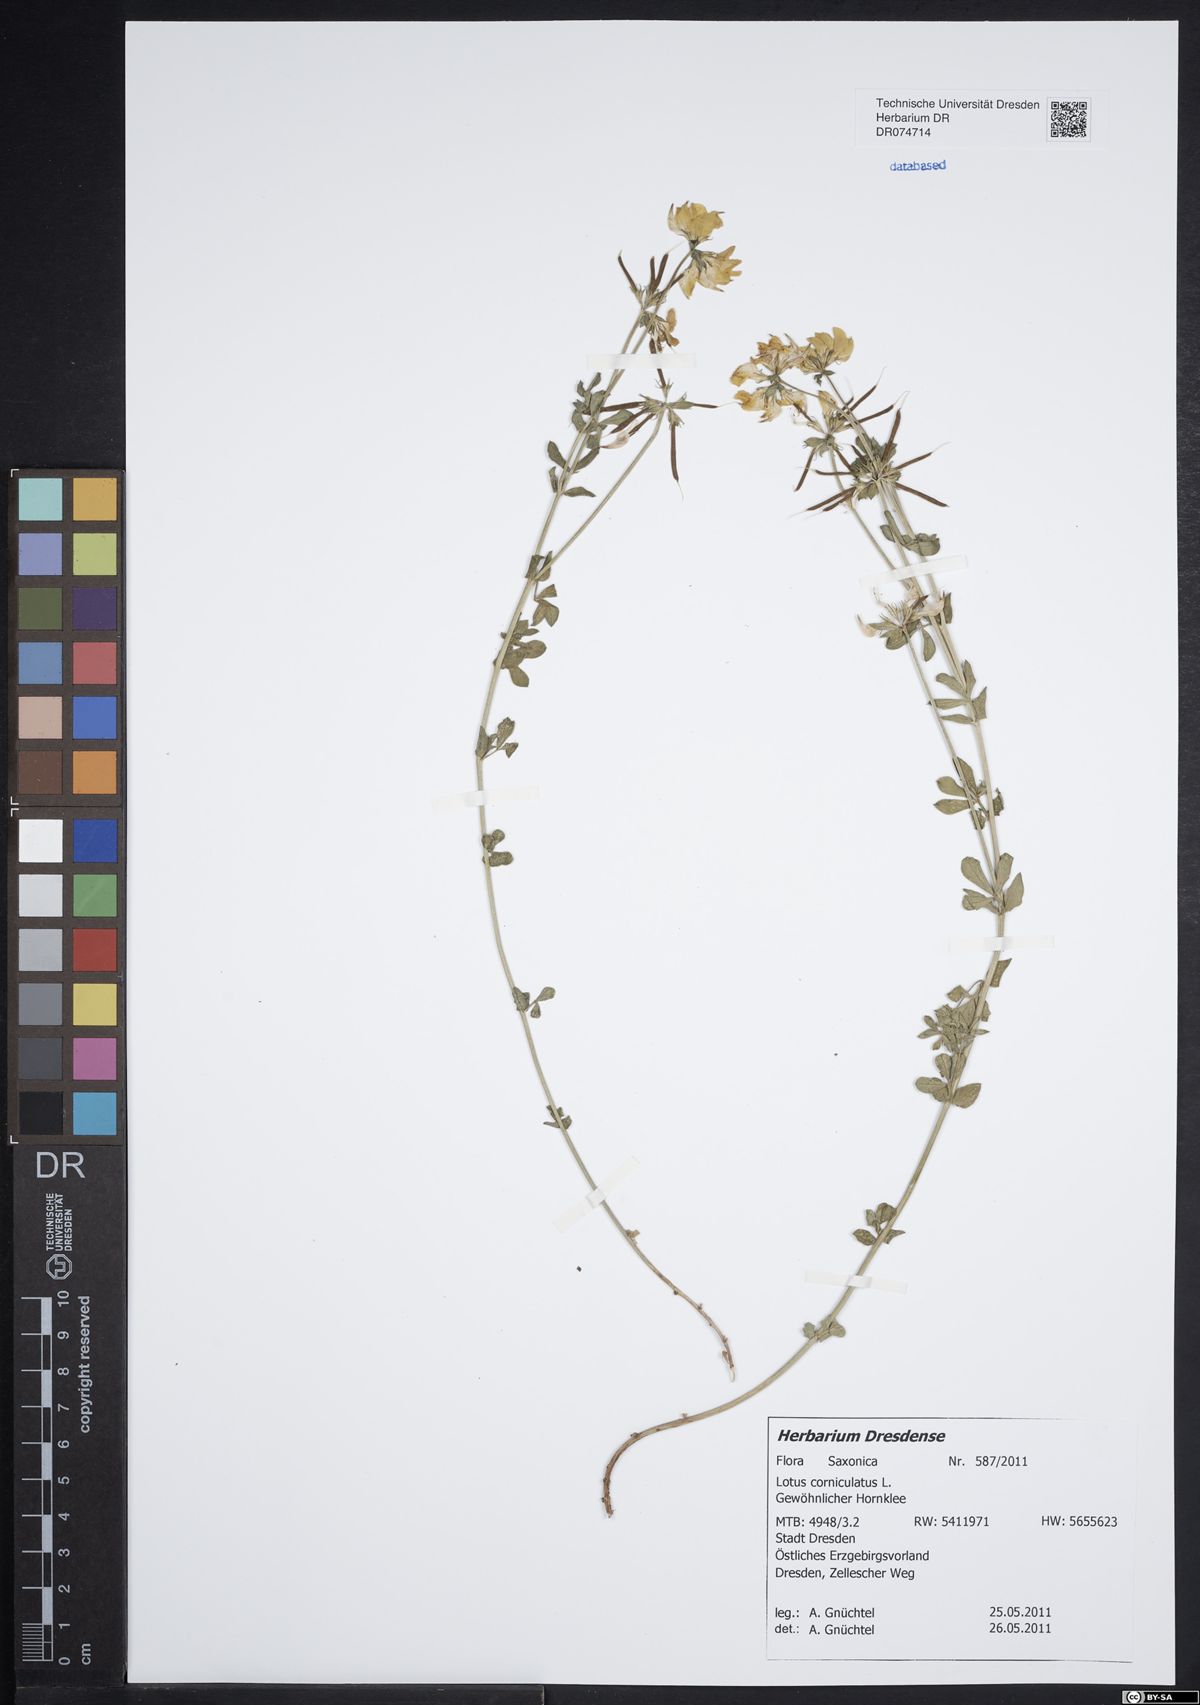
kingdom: Plantae
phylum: Tracheophyta
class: Magnoliopsida
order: Fabales
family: Fabaceae
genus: Lotus
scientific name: Lotus corniculatus
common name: Common bird's-foot-trefoil
